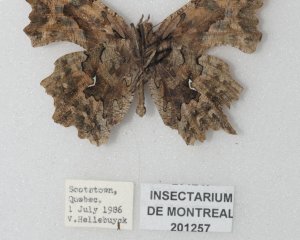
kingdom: Animalia
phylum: Arthropoda
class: Insecta
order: Lepidoptera
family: Nymphalidae
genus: Polygonia
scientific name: Polygonia faunus
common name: Green Comma
